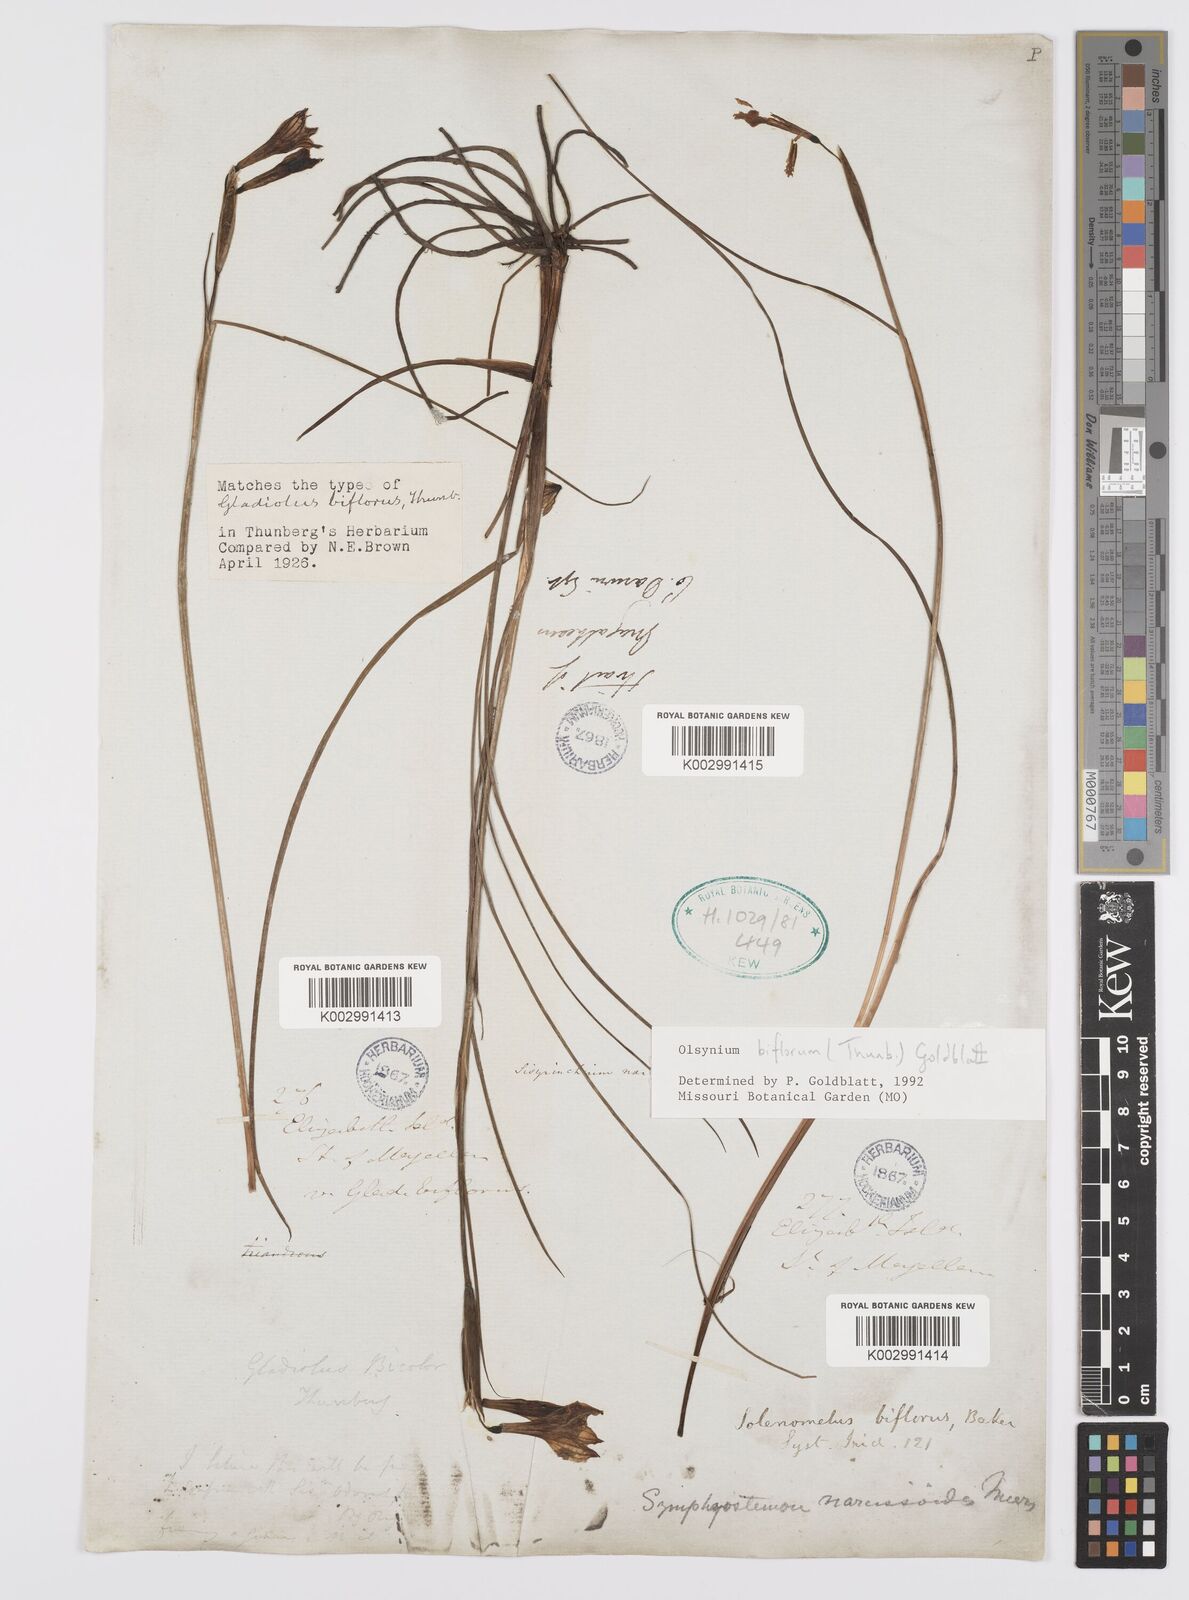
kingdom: Plantae
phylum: Tracheophyta
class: Liliopsida
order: Asparagales
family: Iridaceae
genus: Olsynium
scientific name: Olsynium biflorum
